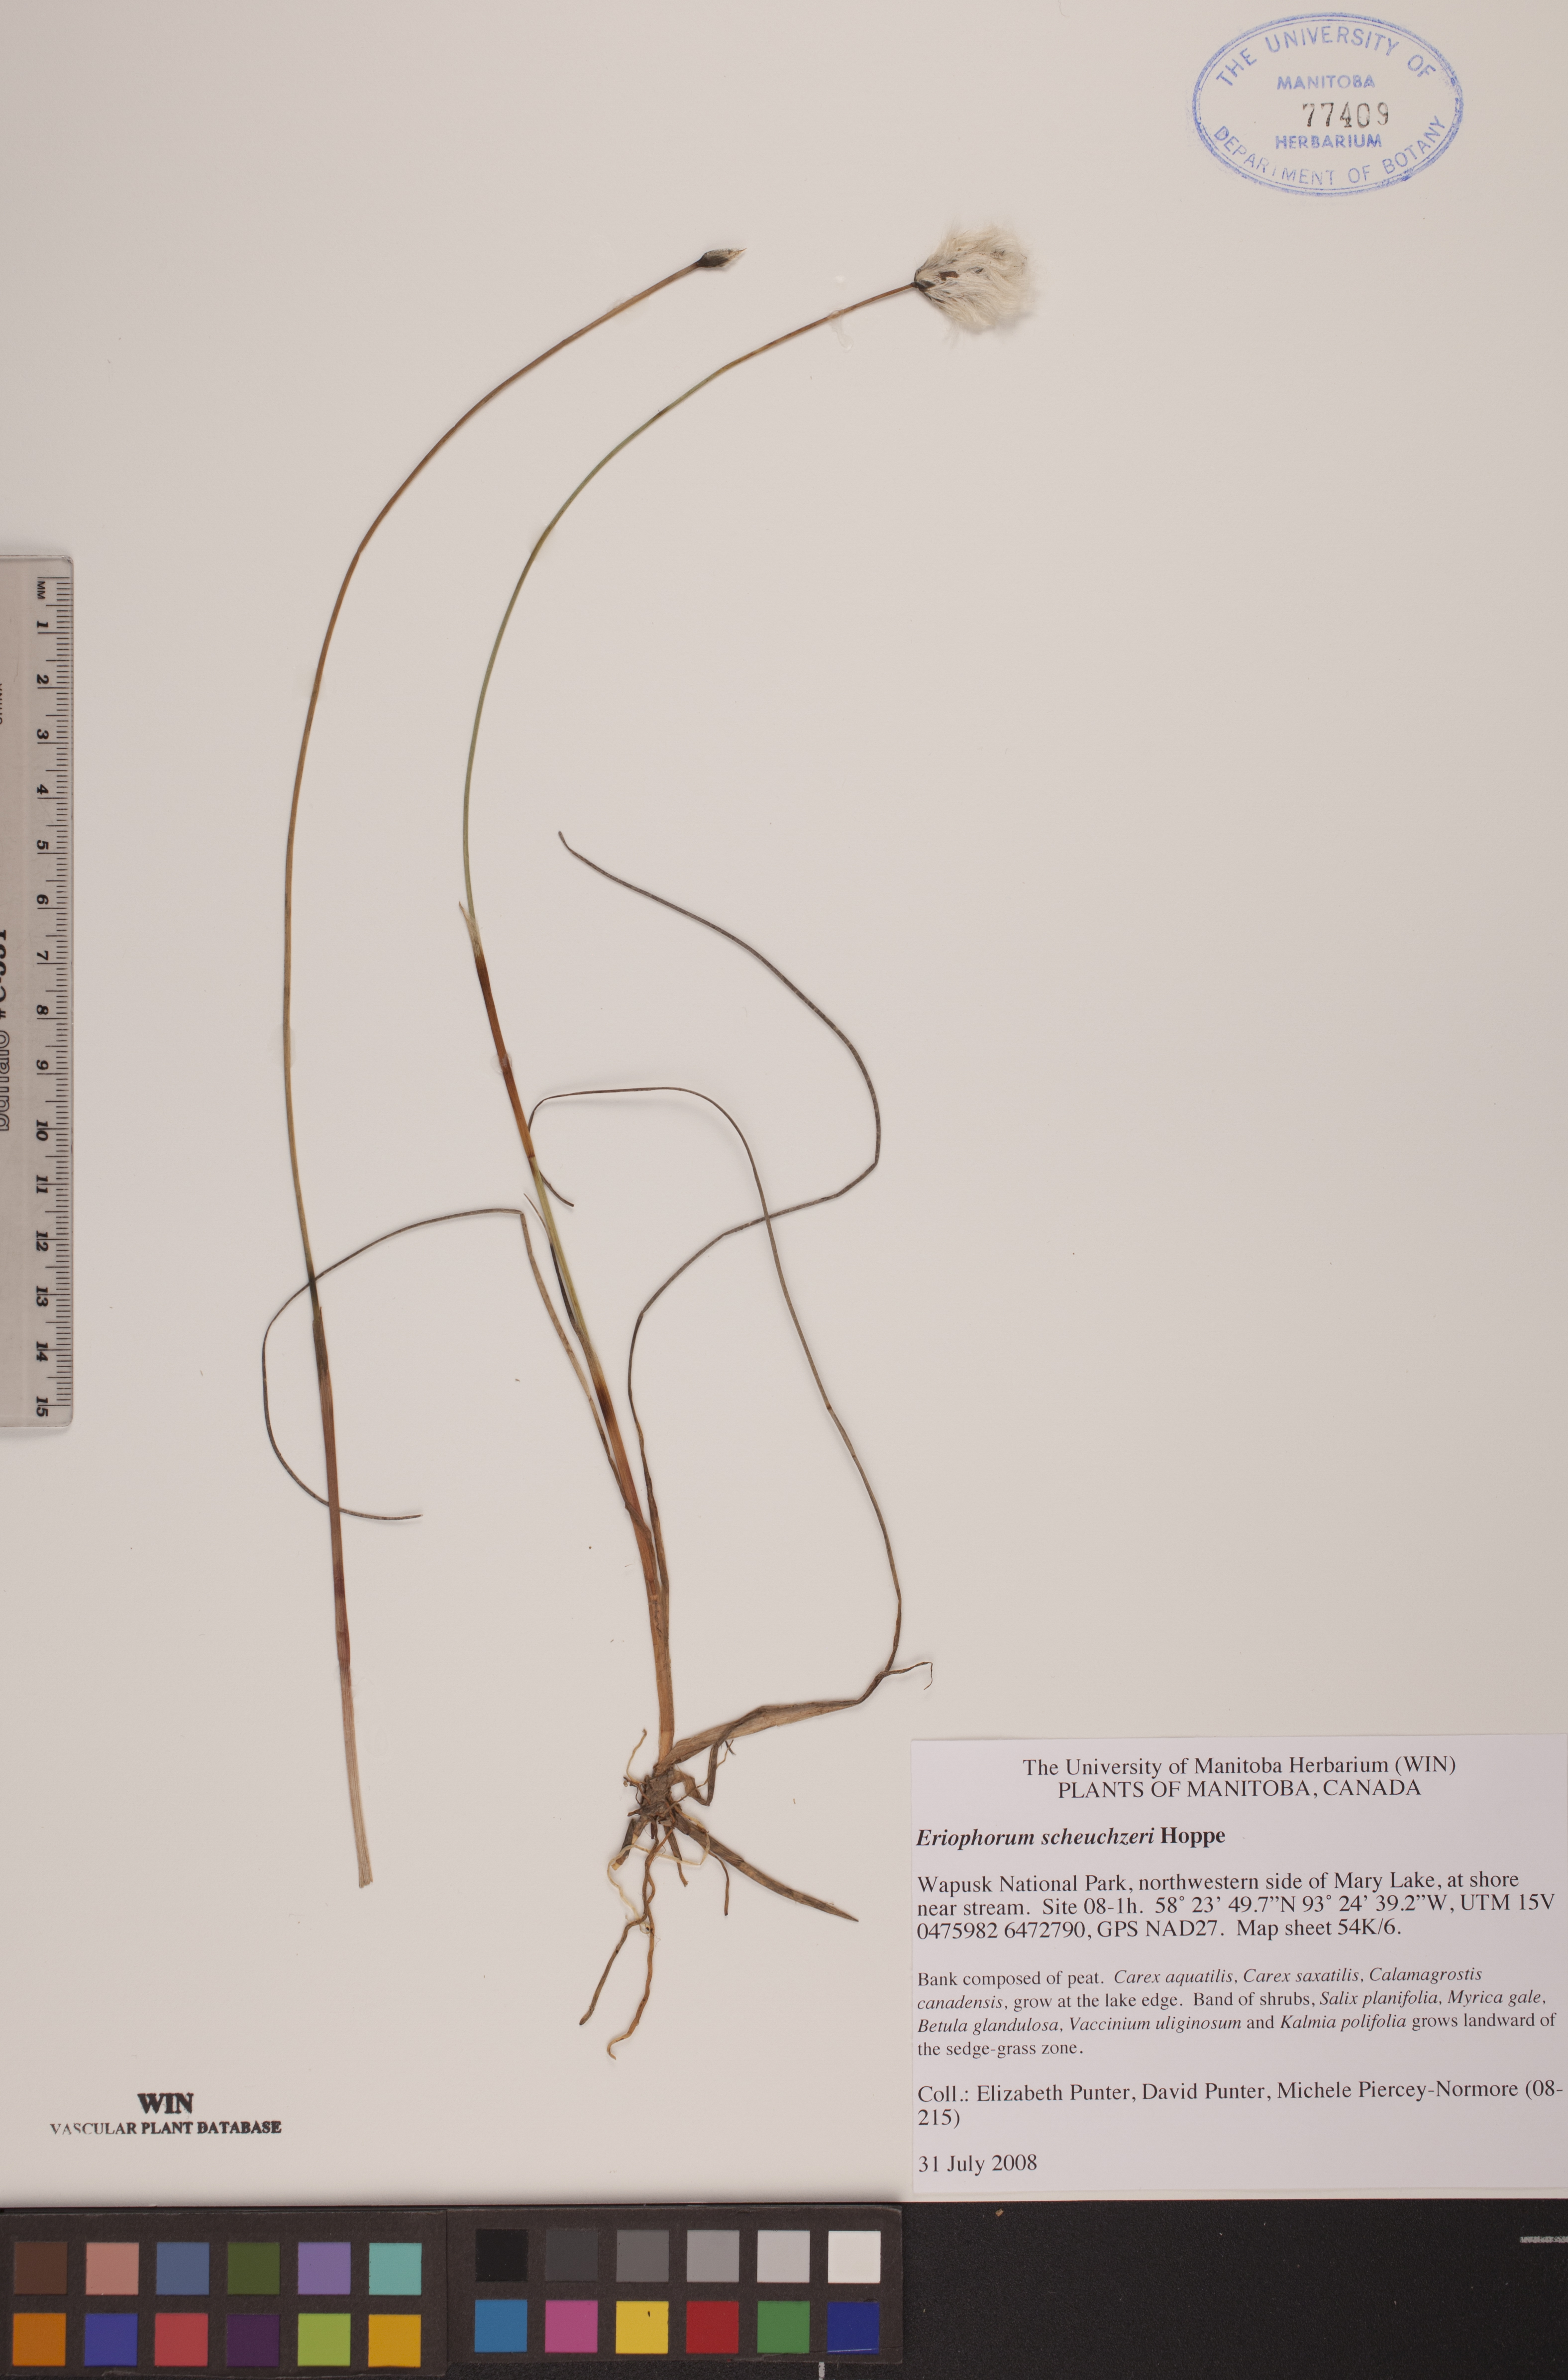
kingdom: Plantae
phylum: Tracheophyta
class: Liliopsida
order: Poales
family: Cyperaceae
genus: Eriophorum
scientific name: Eriophorum scheuchzeri
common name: Scheuchzer's cottongrass
